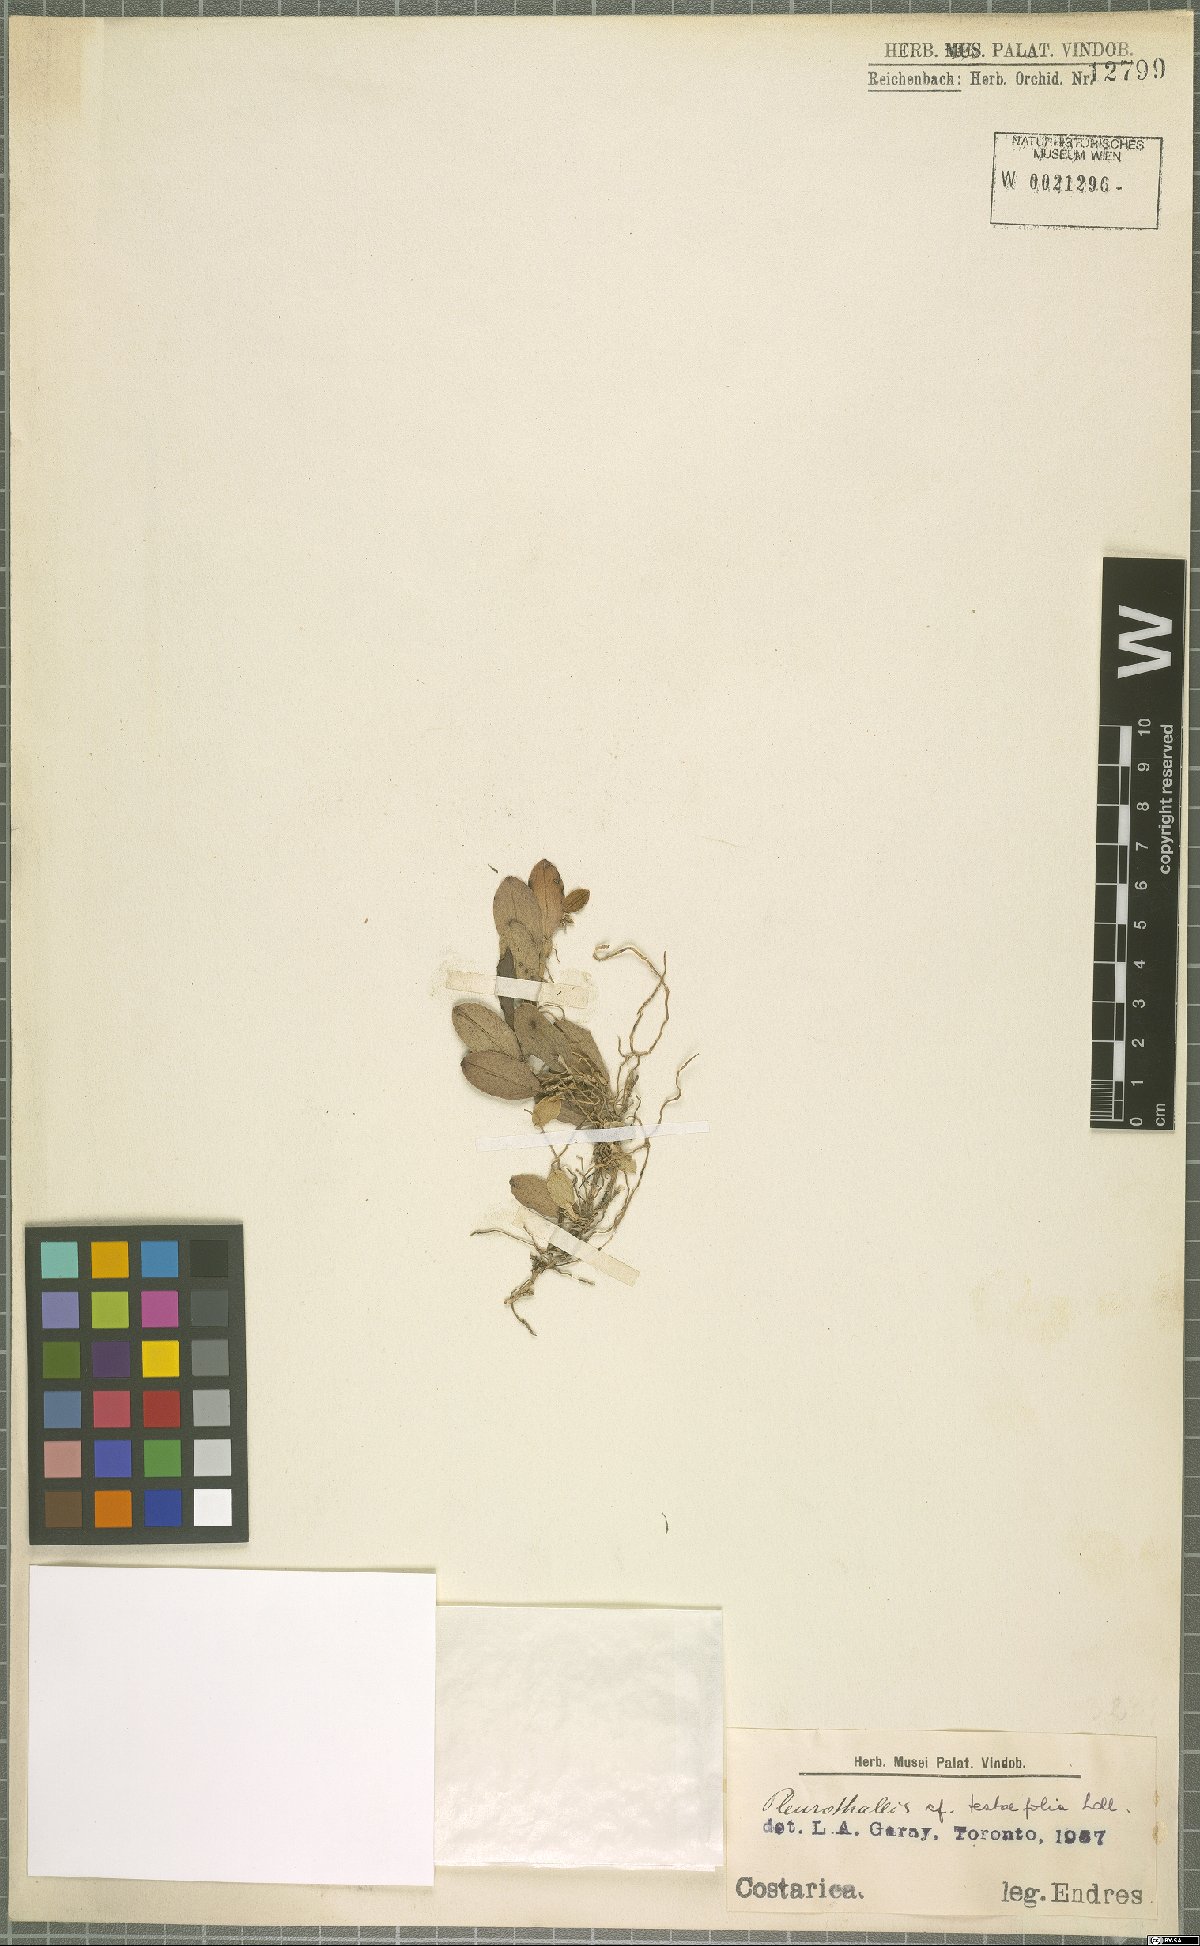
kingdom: Plantae
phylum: Tracheophyta
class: Liliopsida
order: Asparagales
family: Orchidaceae
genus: Acianthera
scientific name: Acianthera testifolia
